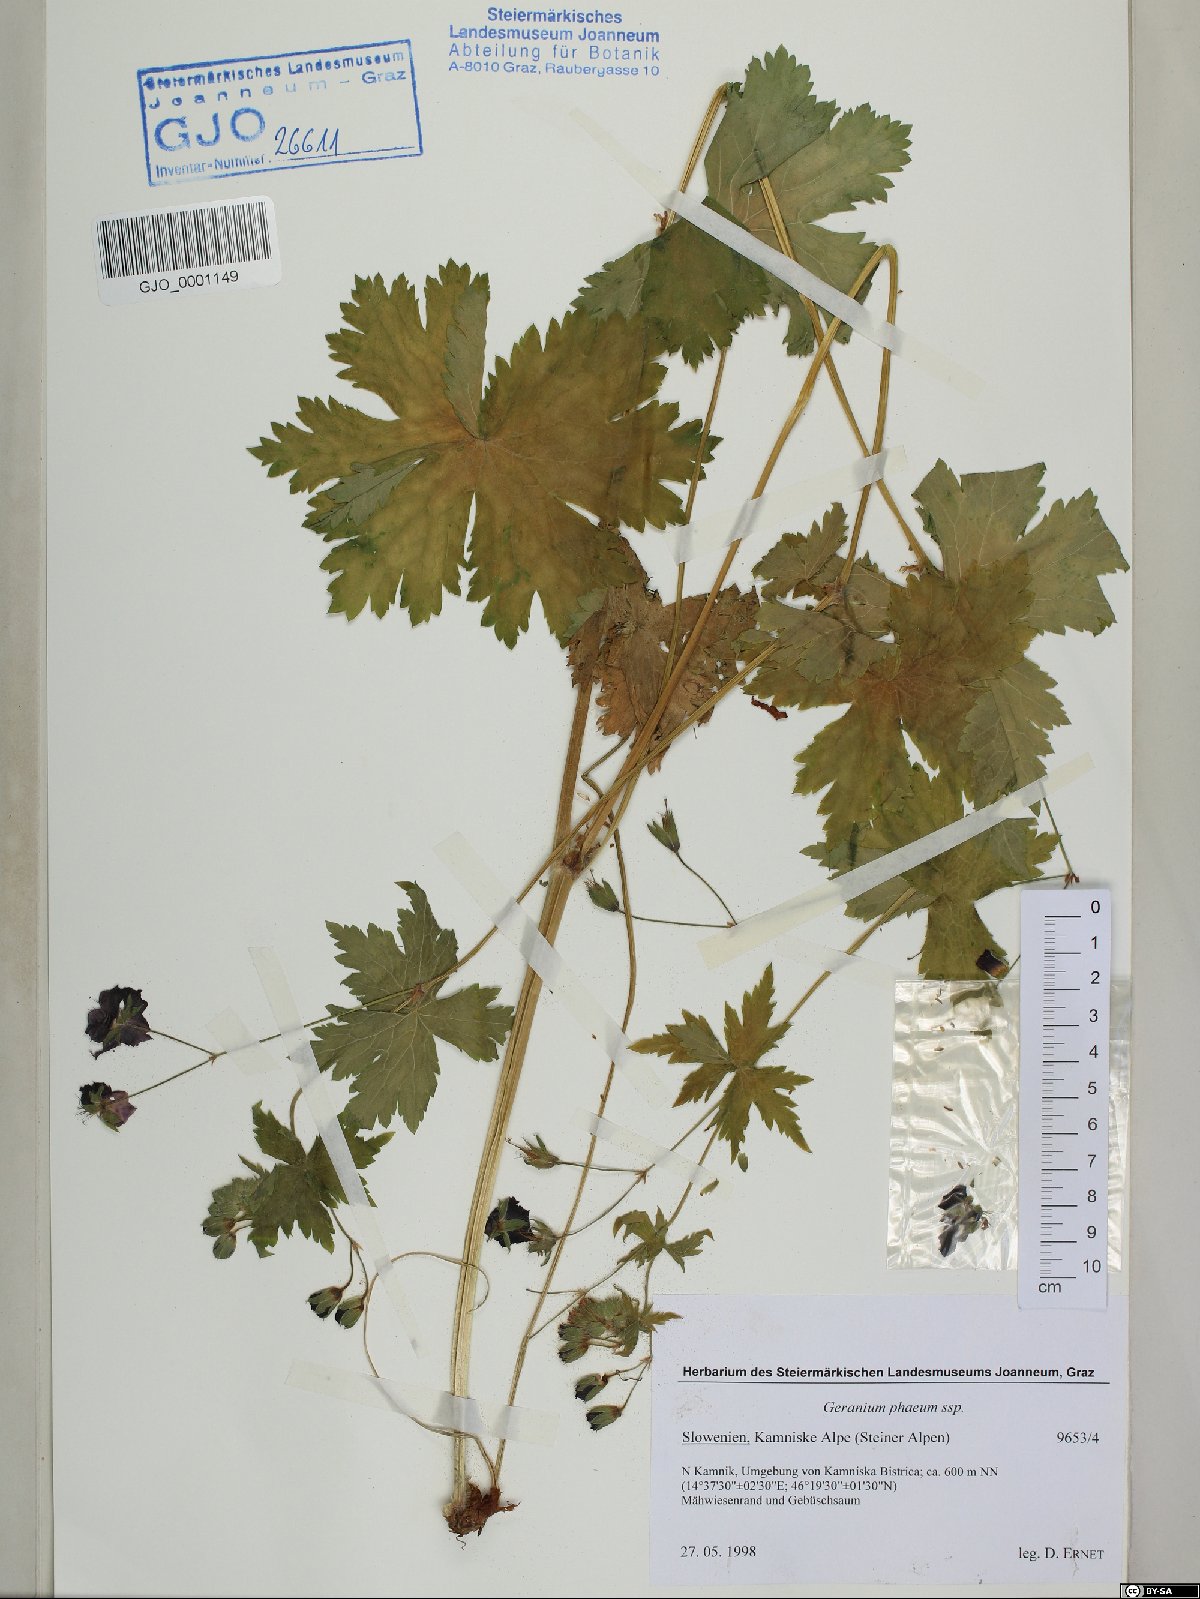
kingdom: Plantae
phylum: Tracheophyta
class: Magnoliopsida
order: Geraniales
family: Geraniaceae
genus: Geranium
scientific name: Geranium phaeum
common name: Dusky crane's-bill
